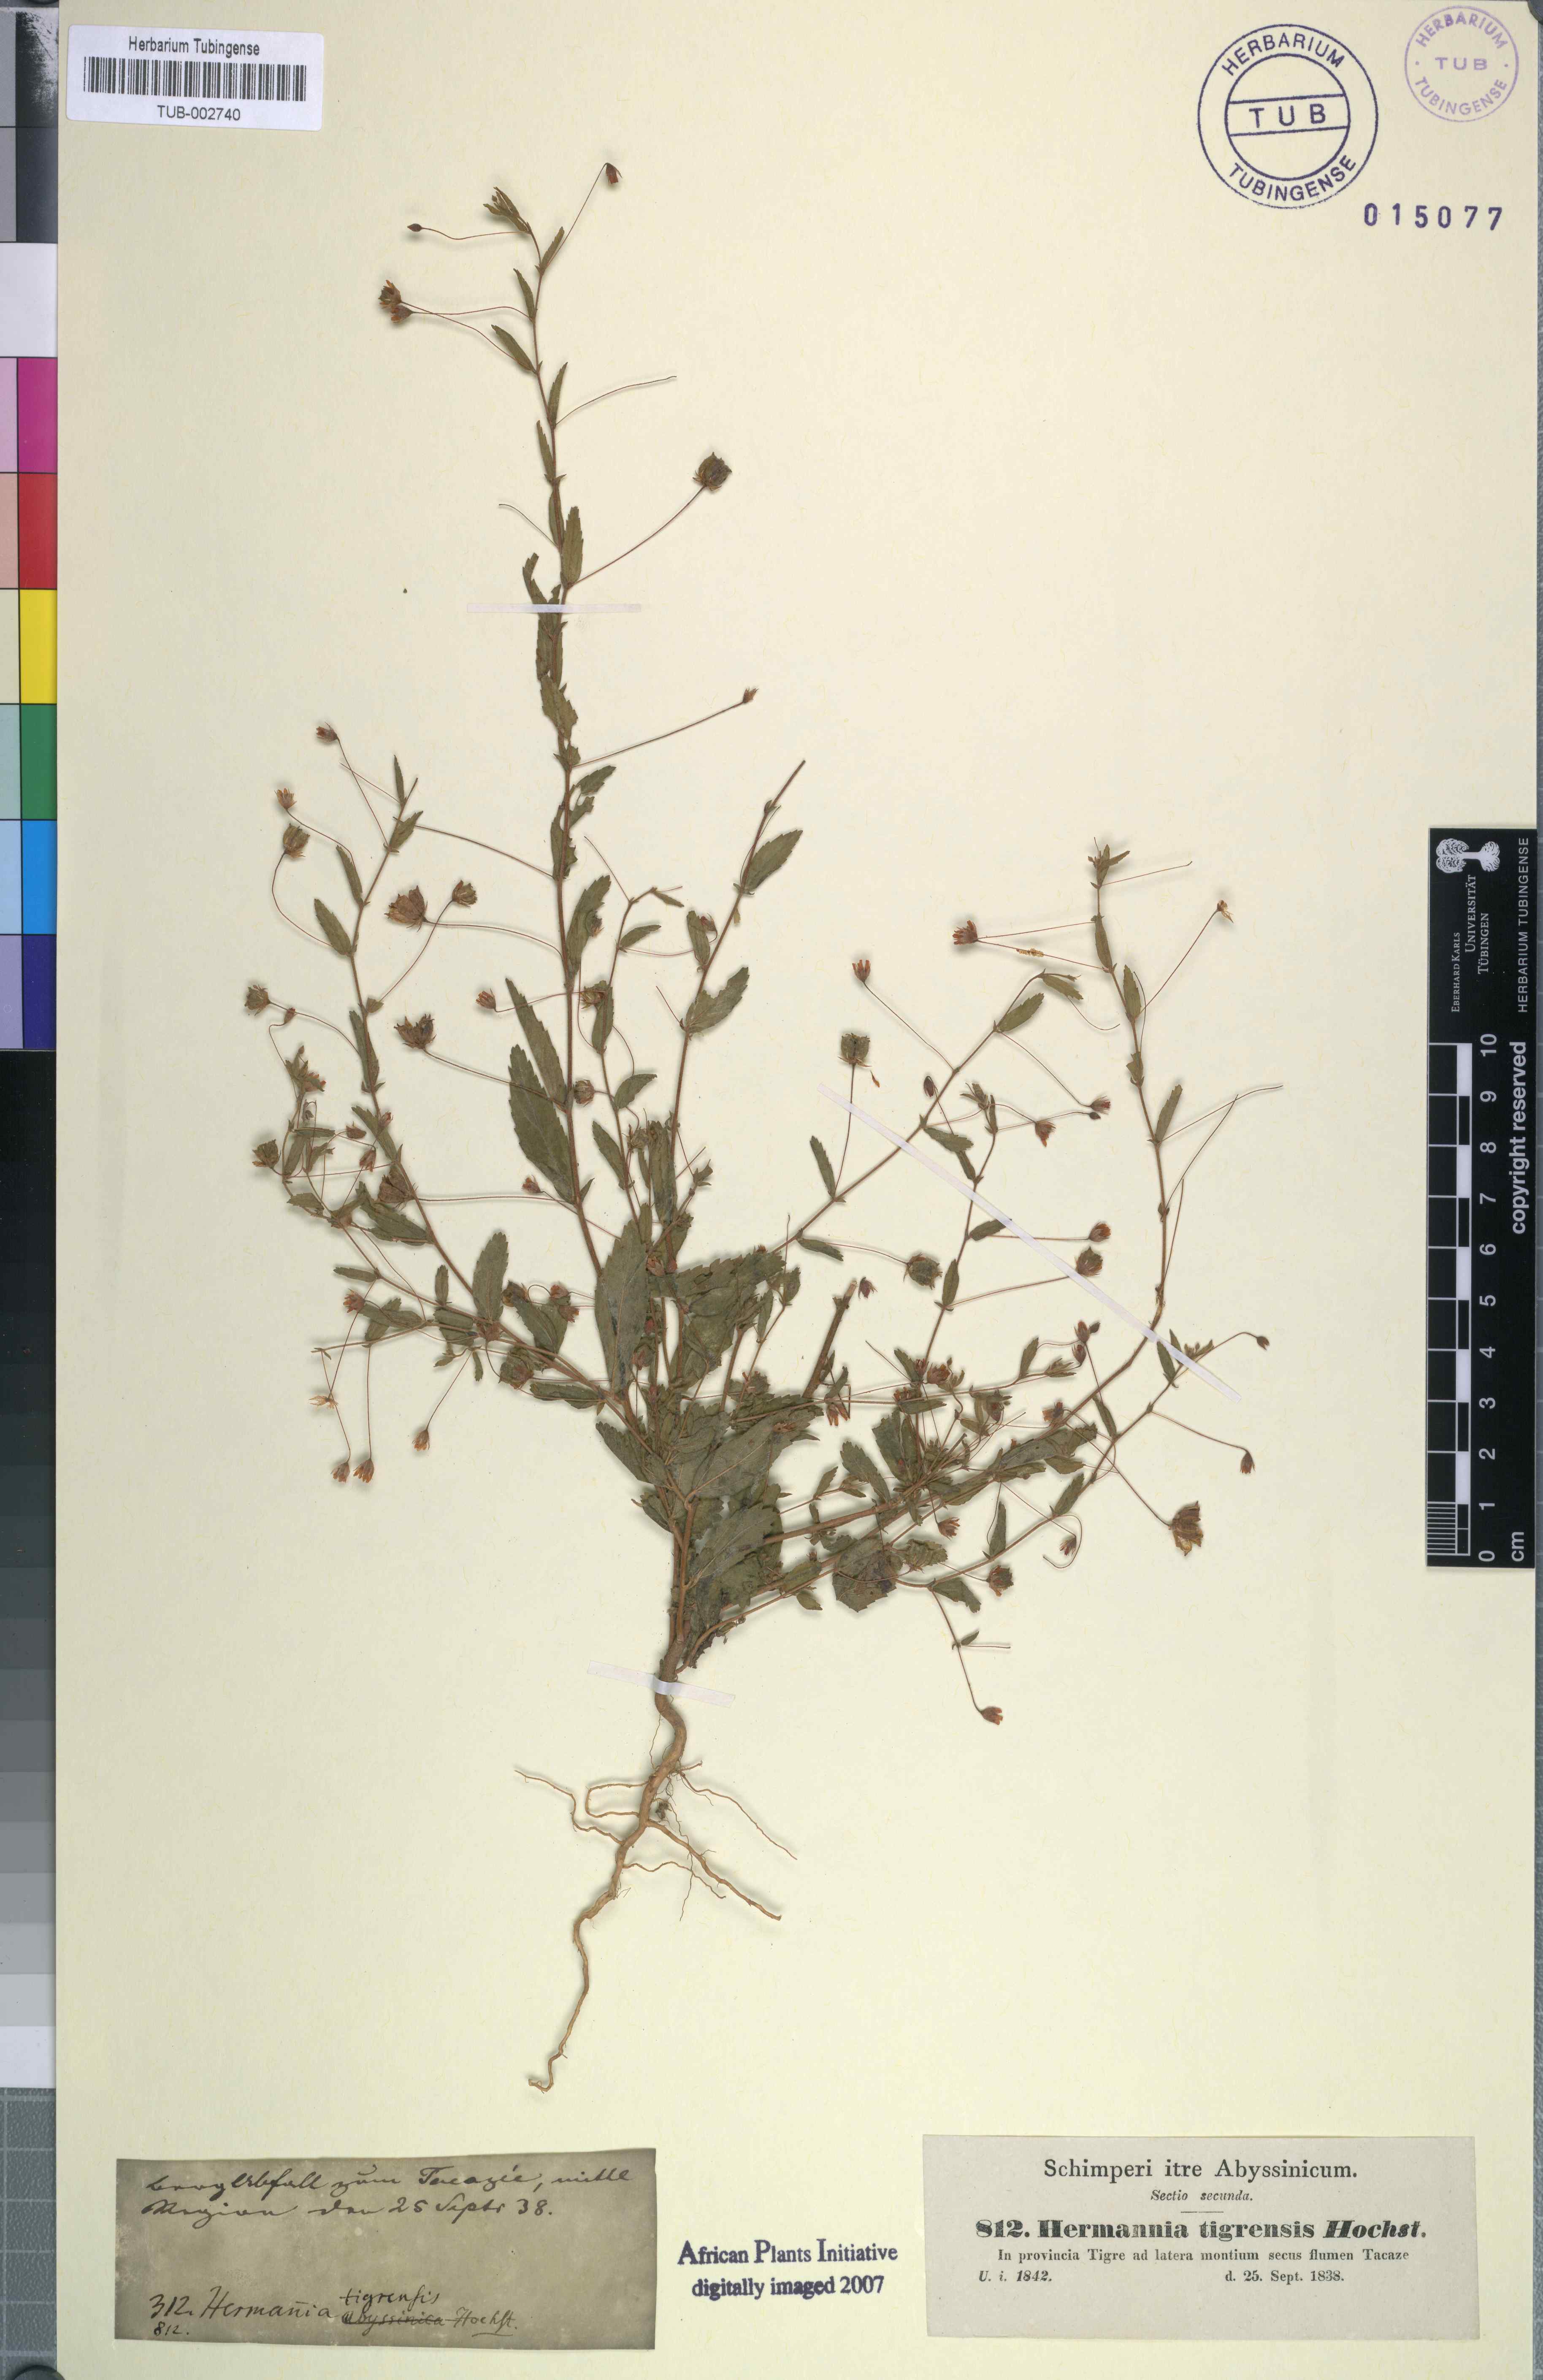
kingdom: Plantae
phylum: Tracheophyta
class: Magnoliopsida
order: Malvales
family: Malvaceae
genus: Hermannia
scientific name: Hermannia tigreensis
